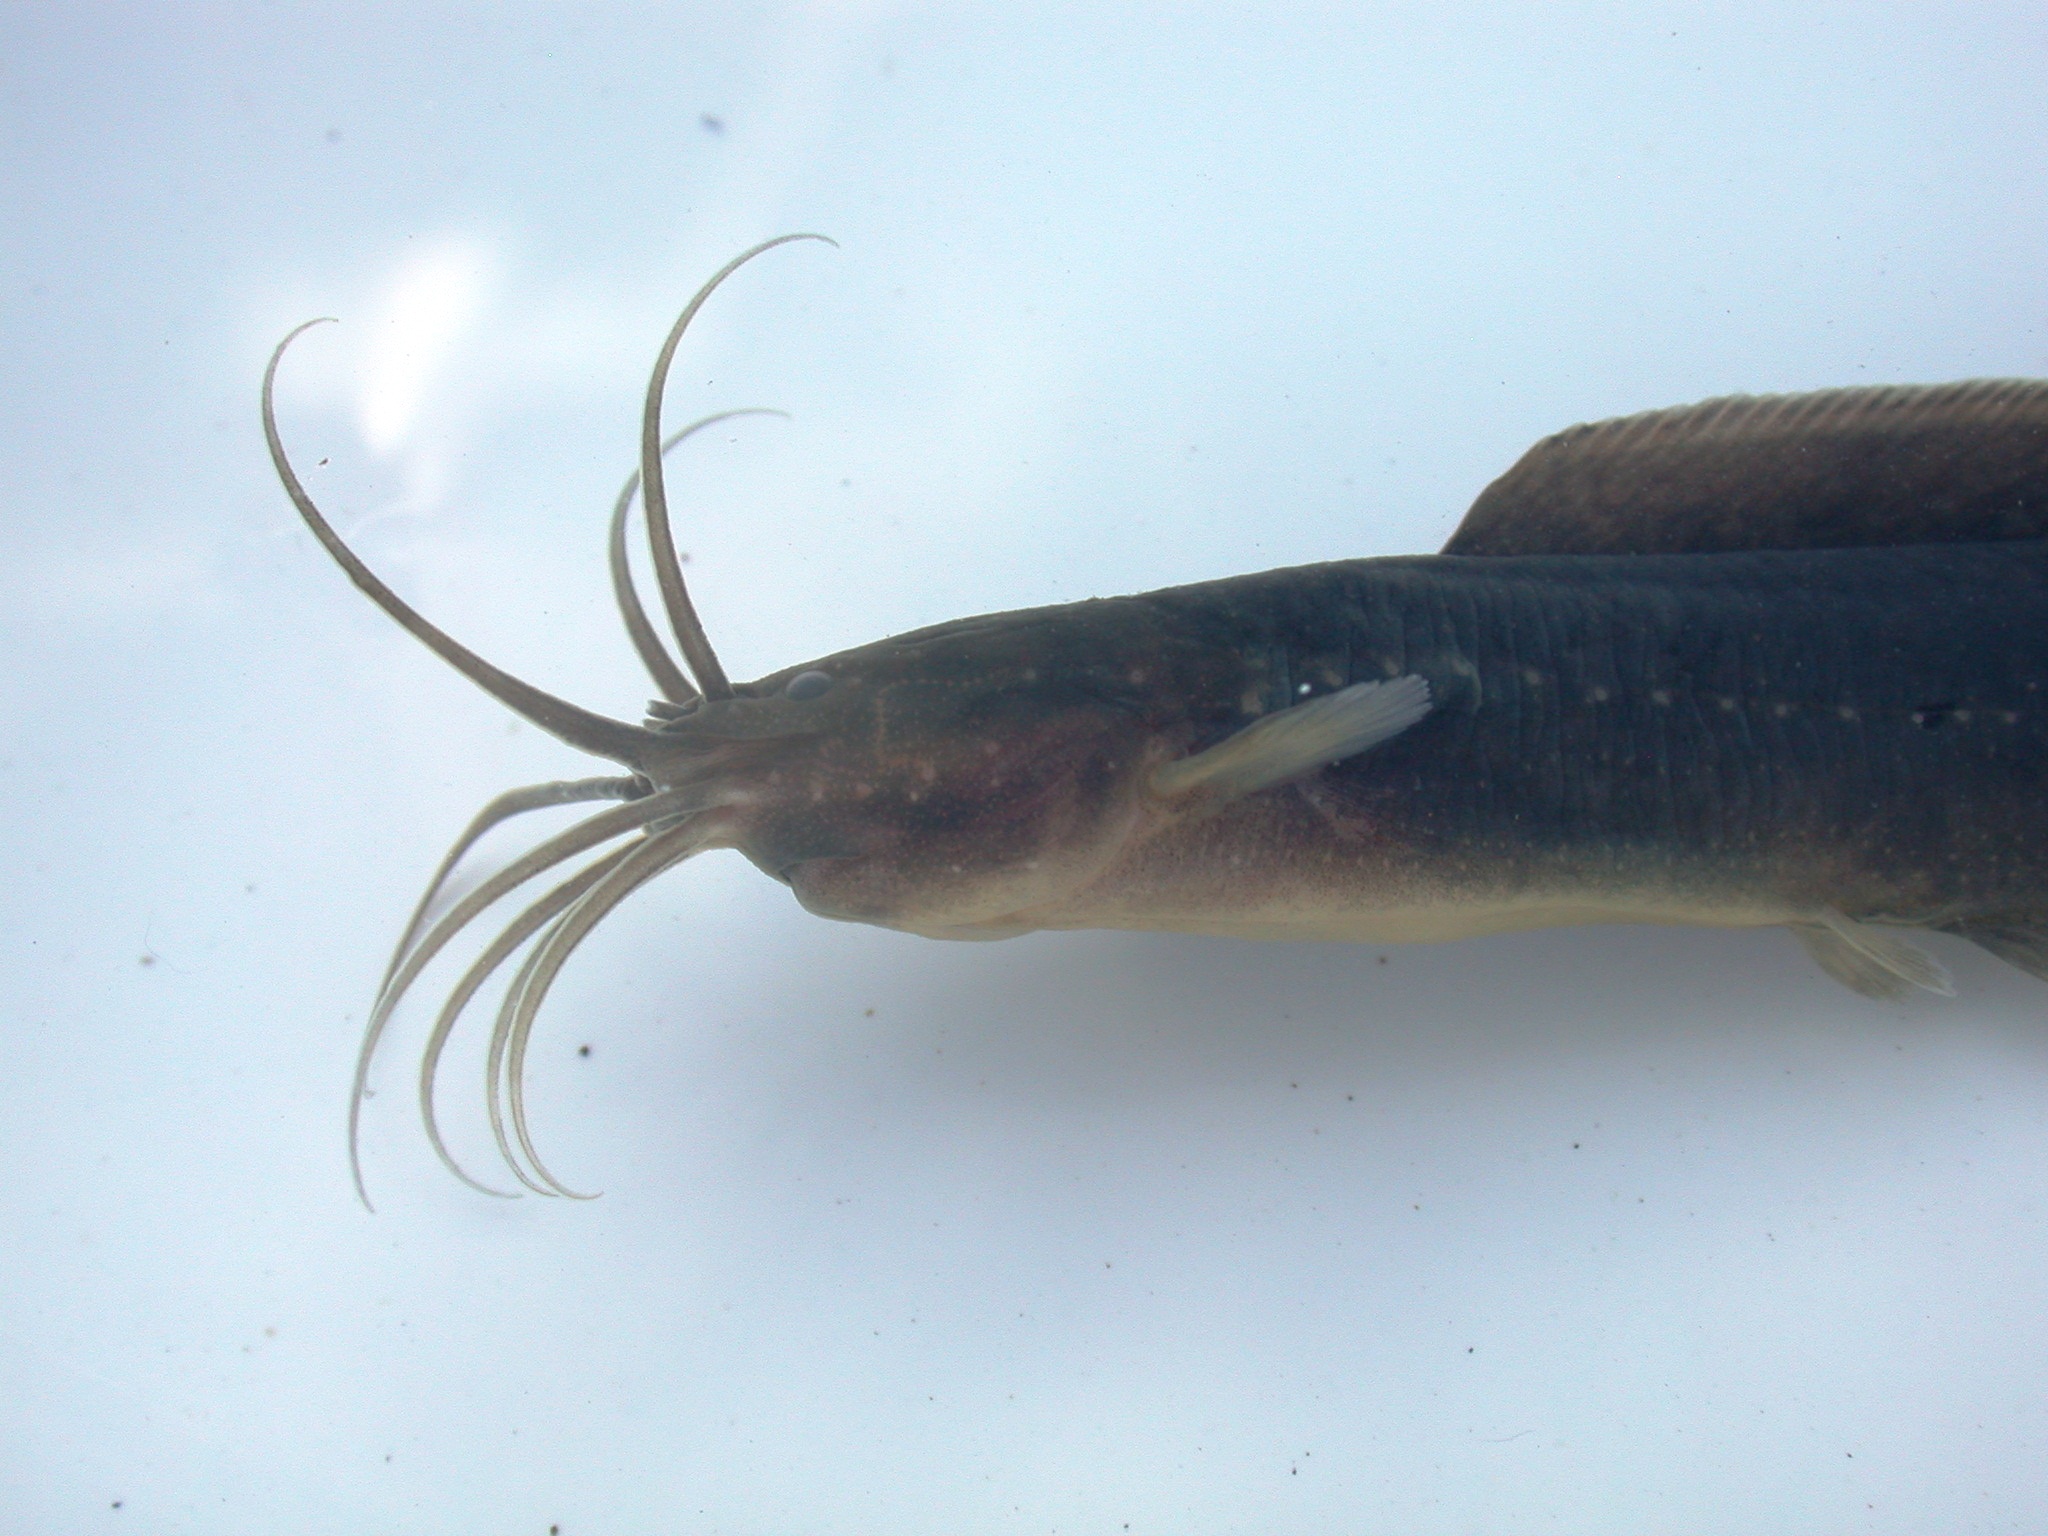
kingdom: Animalia
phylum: Chordata
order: Siluriformes
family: Clariidae
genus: Clarias
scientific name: Clarias theodorae
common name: Snake catfish
